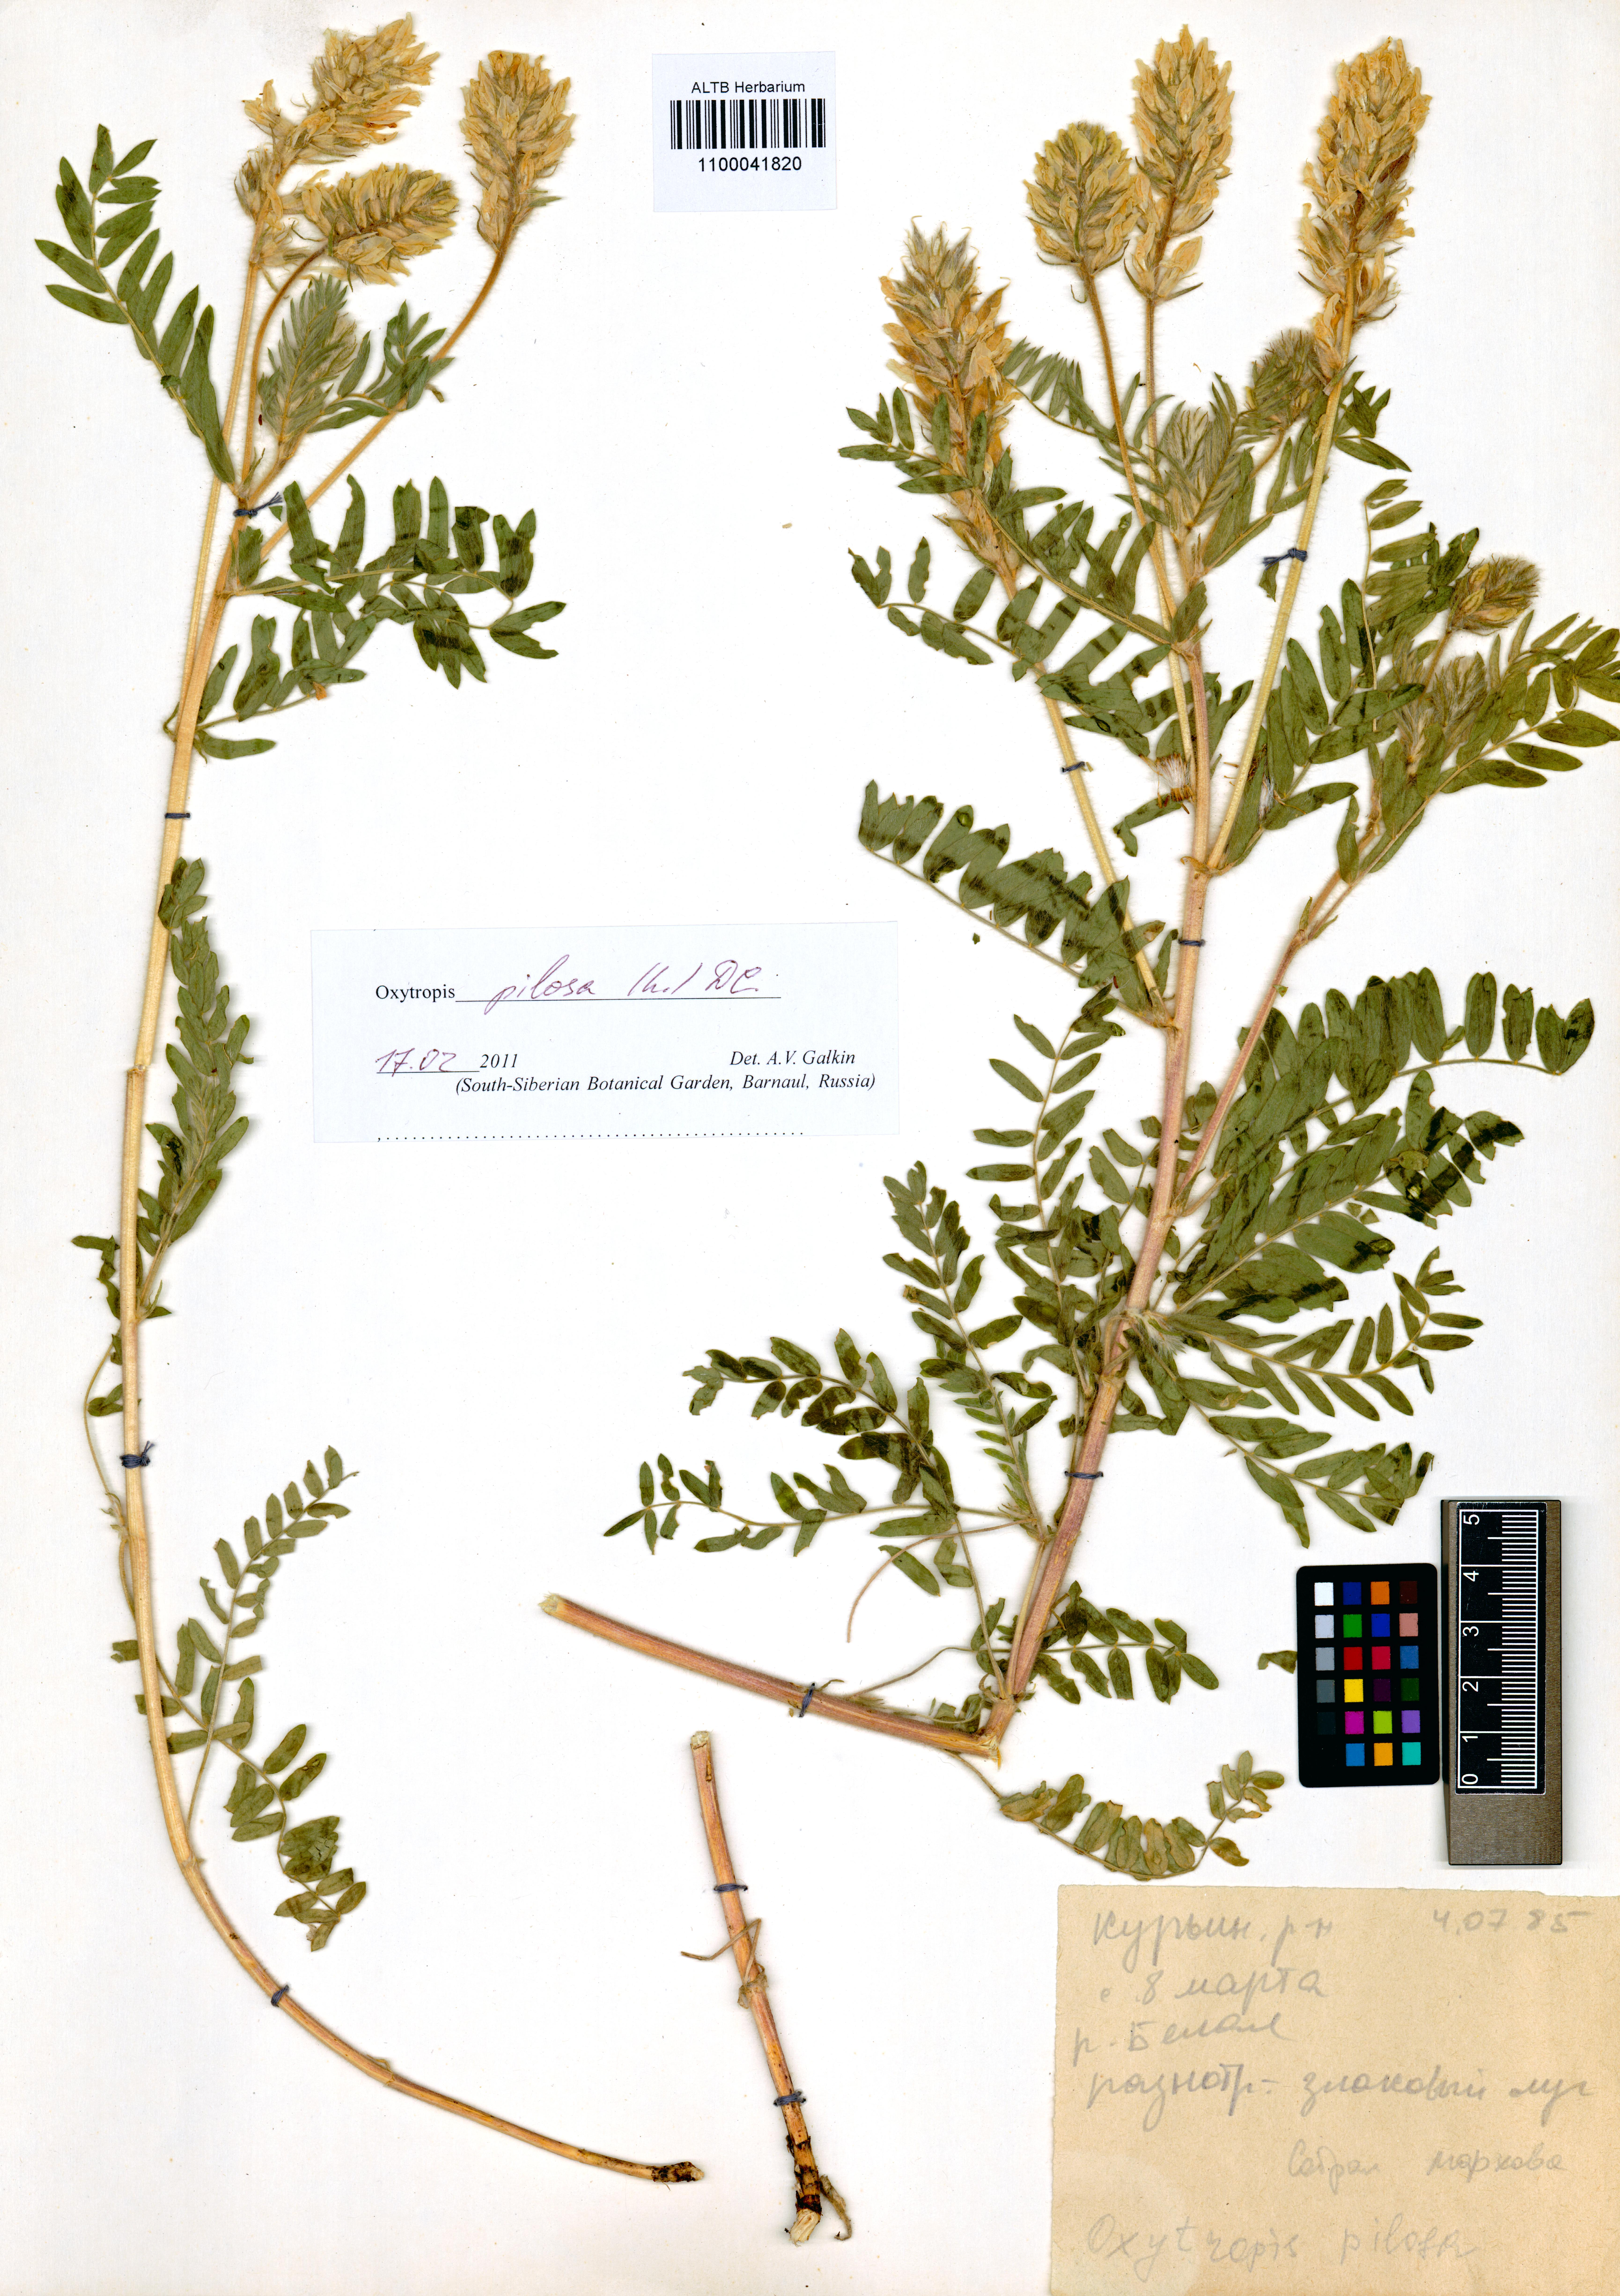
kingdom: Plantae
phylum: Tracheophyta
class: Magnoliopsida
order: Fabales
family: Fabaceae
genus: Oxytropis
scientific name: Oxytropis pilosa
